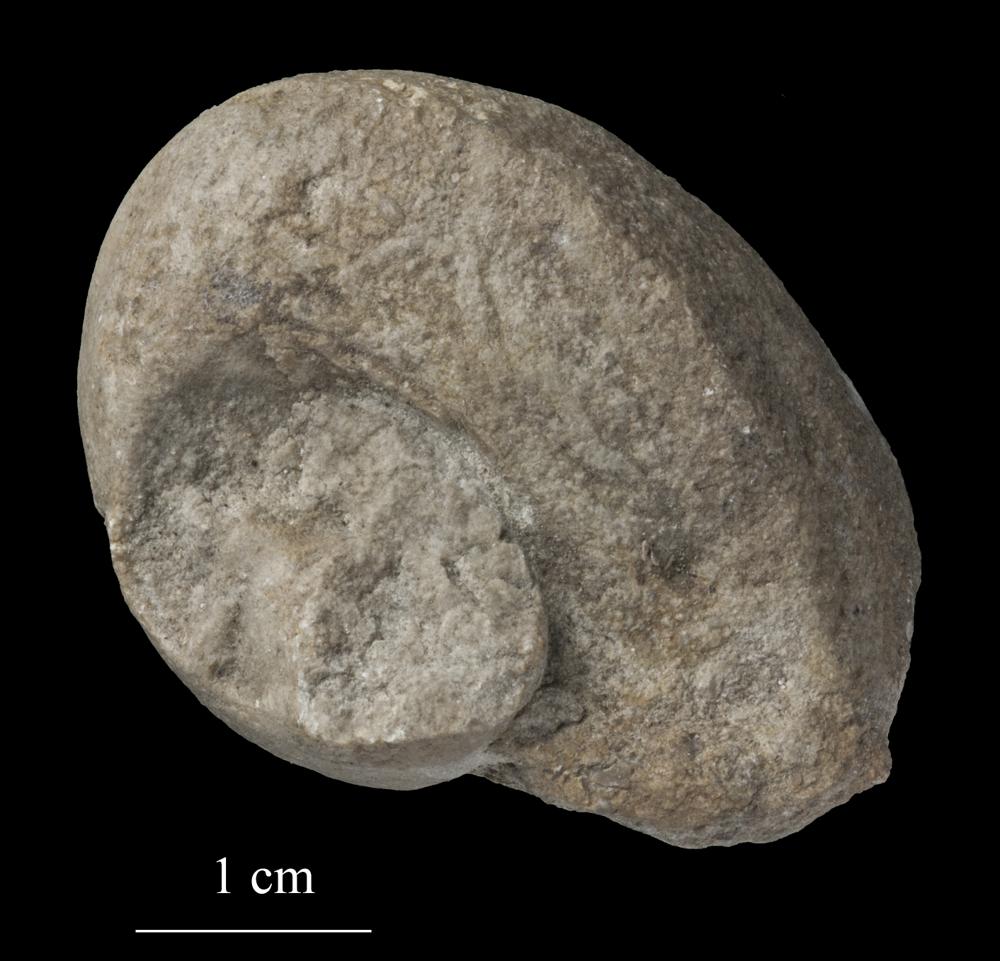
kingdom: Animalia
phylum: Mollusca
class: Gastropoda
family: Lophospiridae
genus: Lophospira
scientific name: Lophospira
